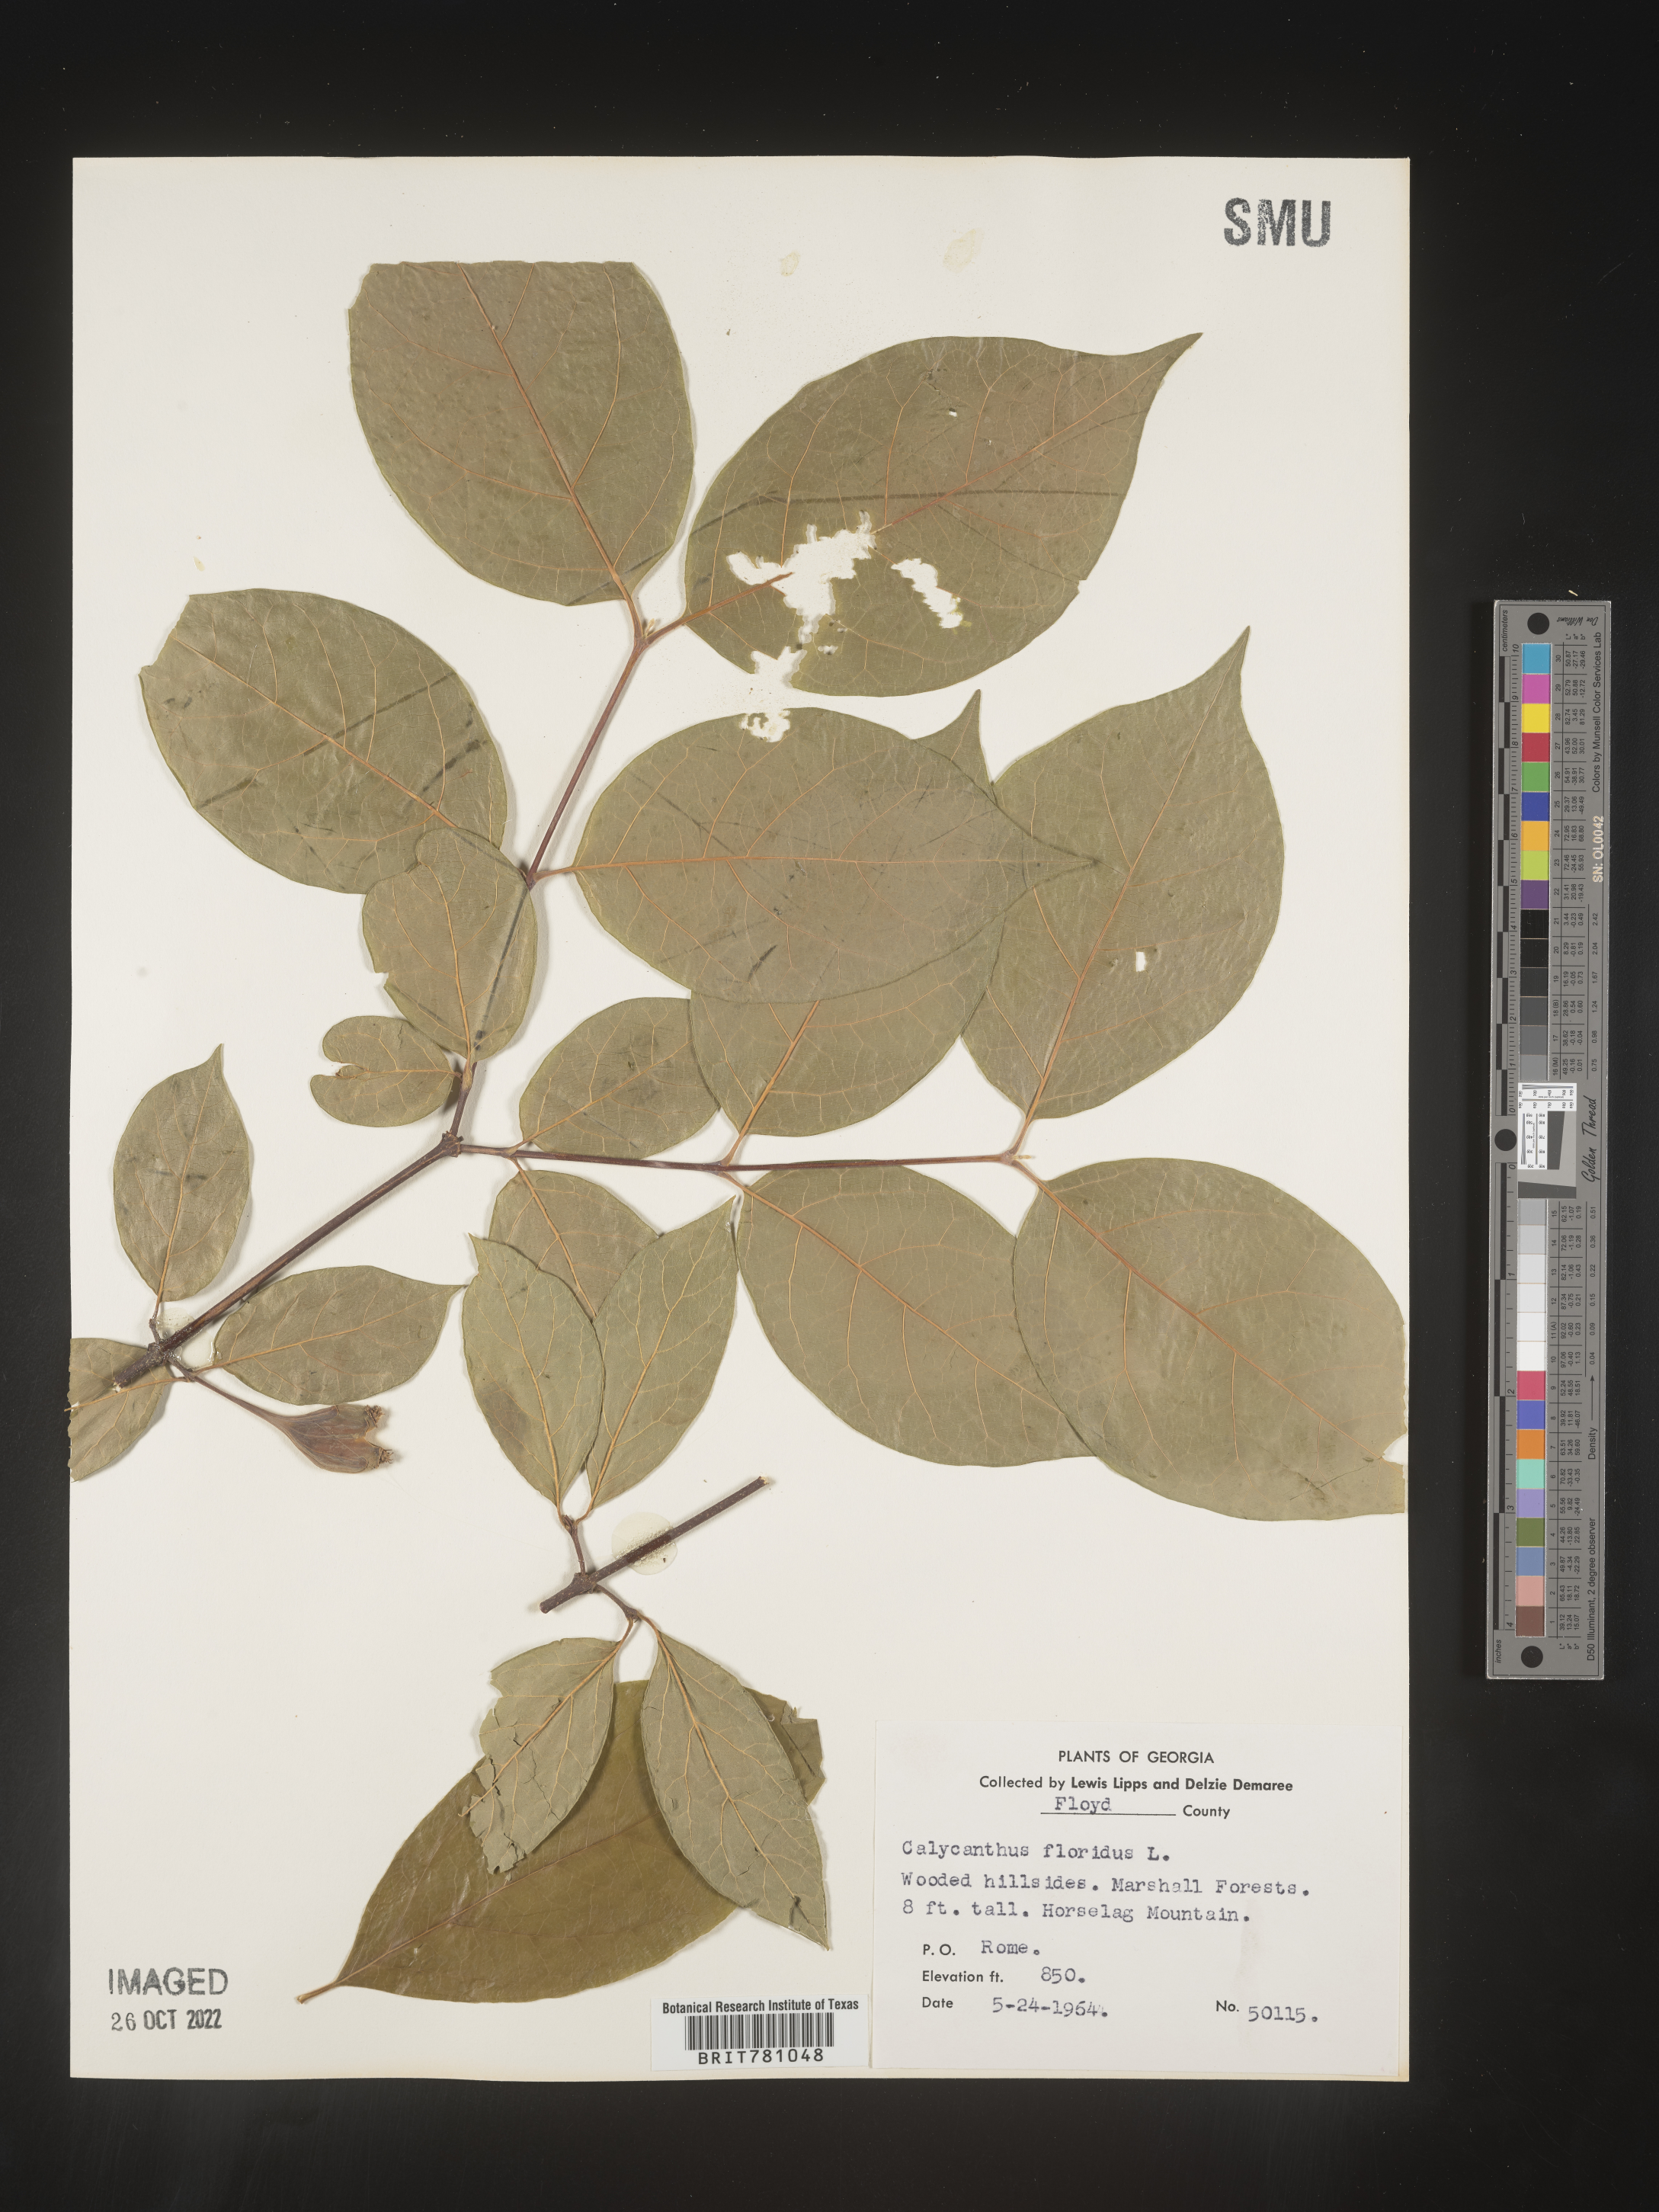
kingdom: Plantae
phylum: Tracheophyta
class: Magnoliopsida
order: Laurales
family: Calycanthaceae
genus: Calycanthus
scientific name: Calycanthus floridus
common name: Carolina-allspice
